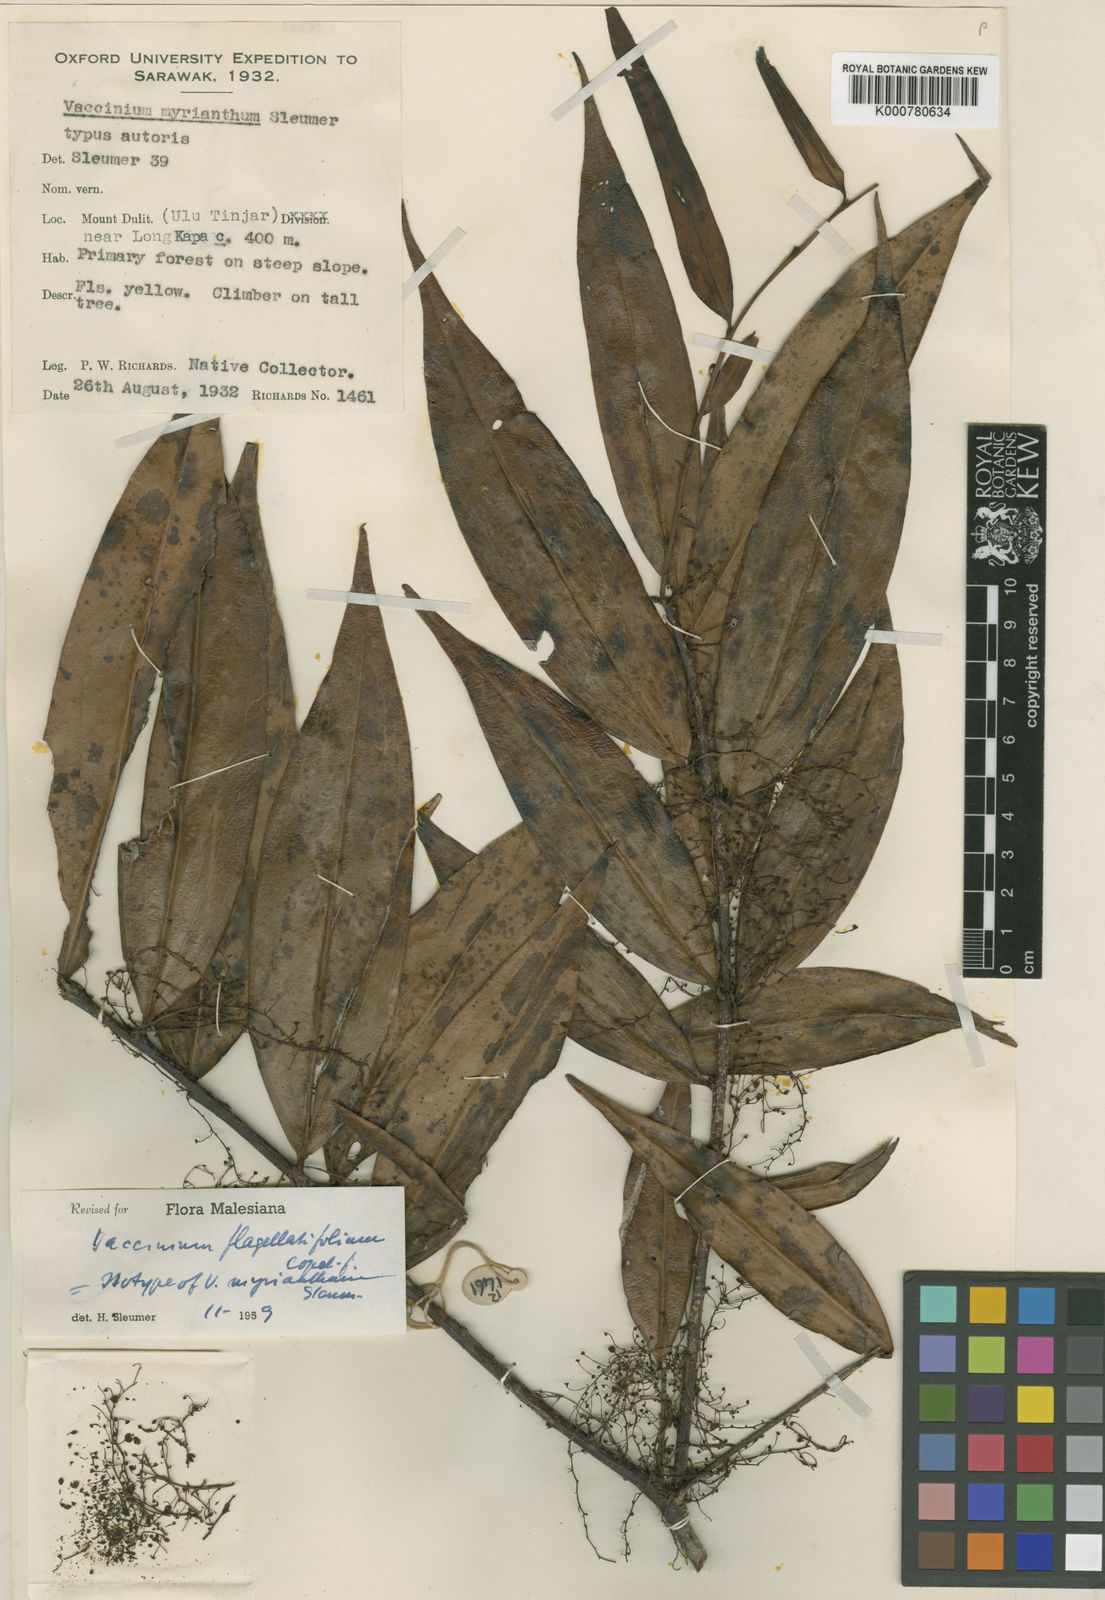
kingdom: Plantae
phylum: Tracheophyta
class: Magnoliopsida
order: Ericales
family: Ericaceae
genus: Rigiolepis
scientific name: Rigiolepis leptantha
